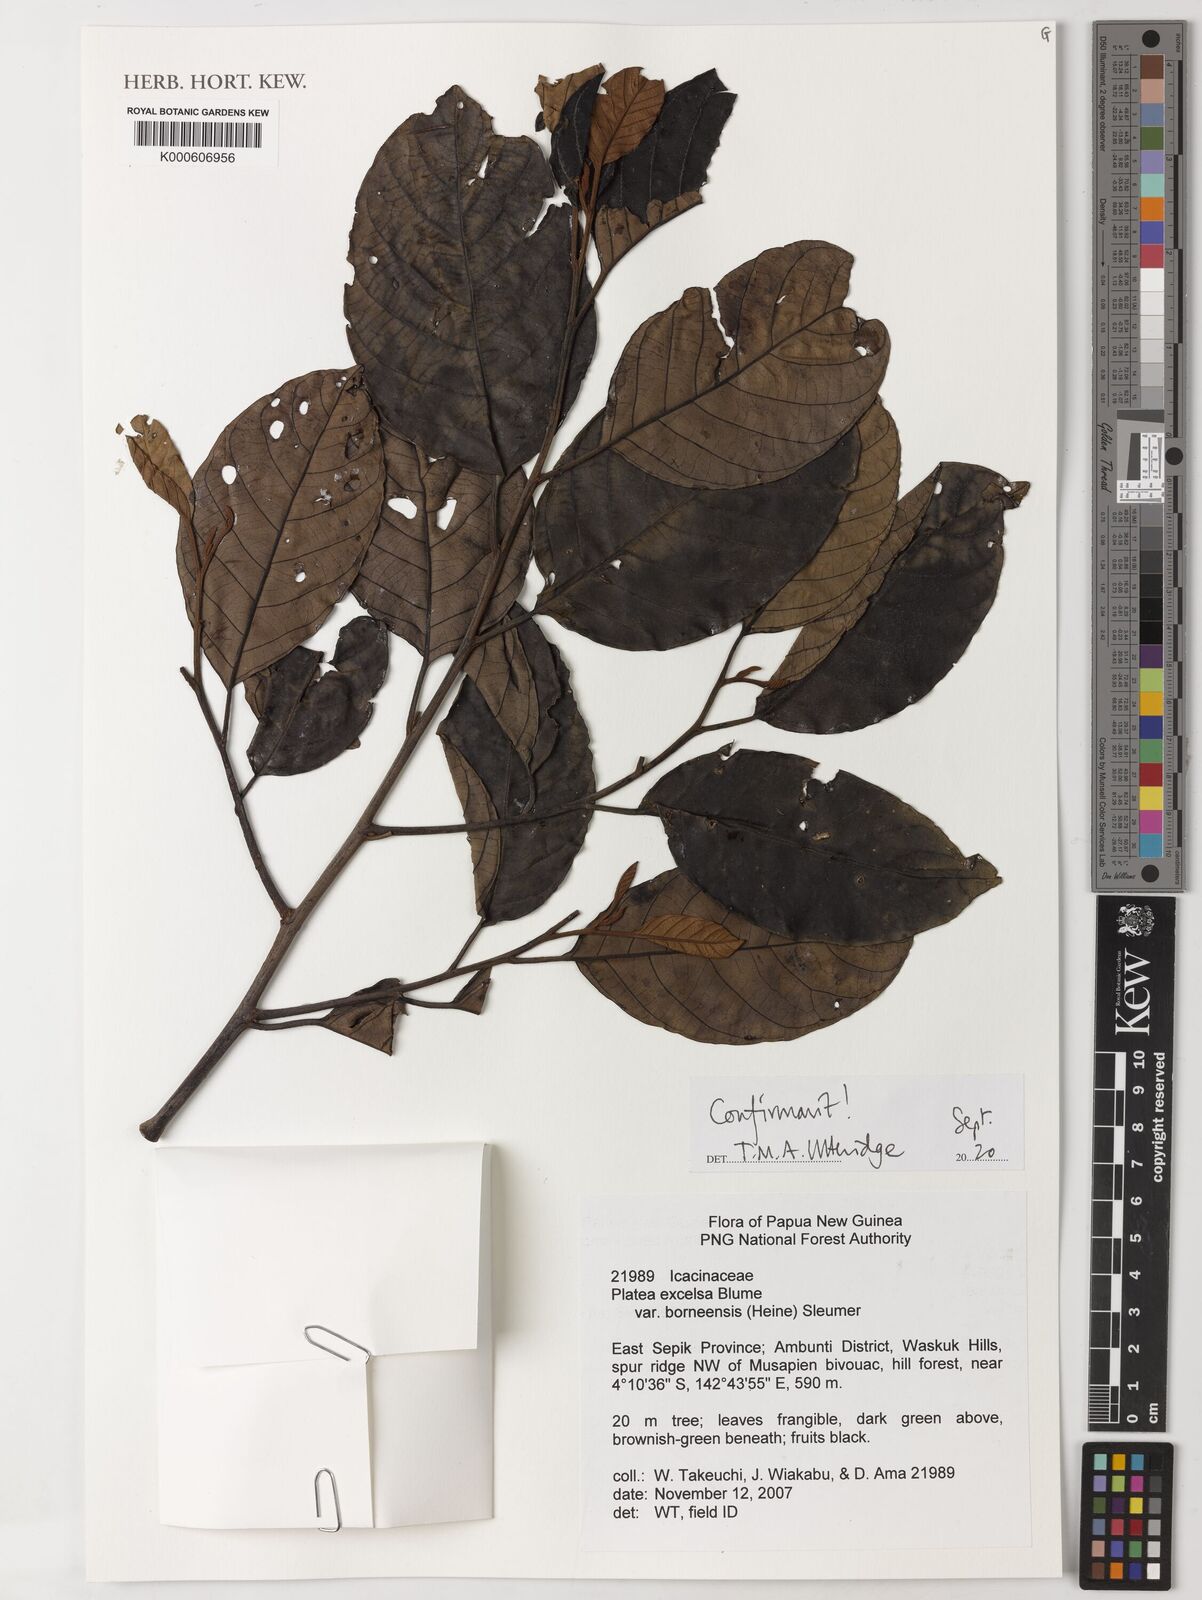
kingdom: Plantae
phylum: Tracheophyta
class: Magnoliopsida
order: Metteniusales
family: Metteniusaceae
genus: Platea
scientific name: Platea excelsa
